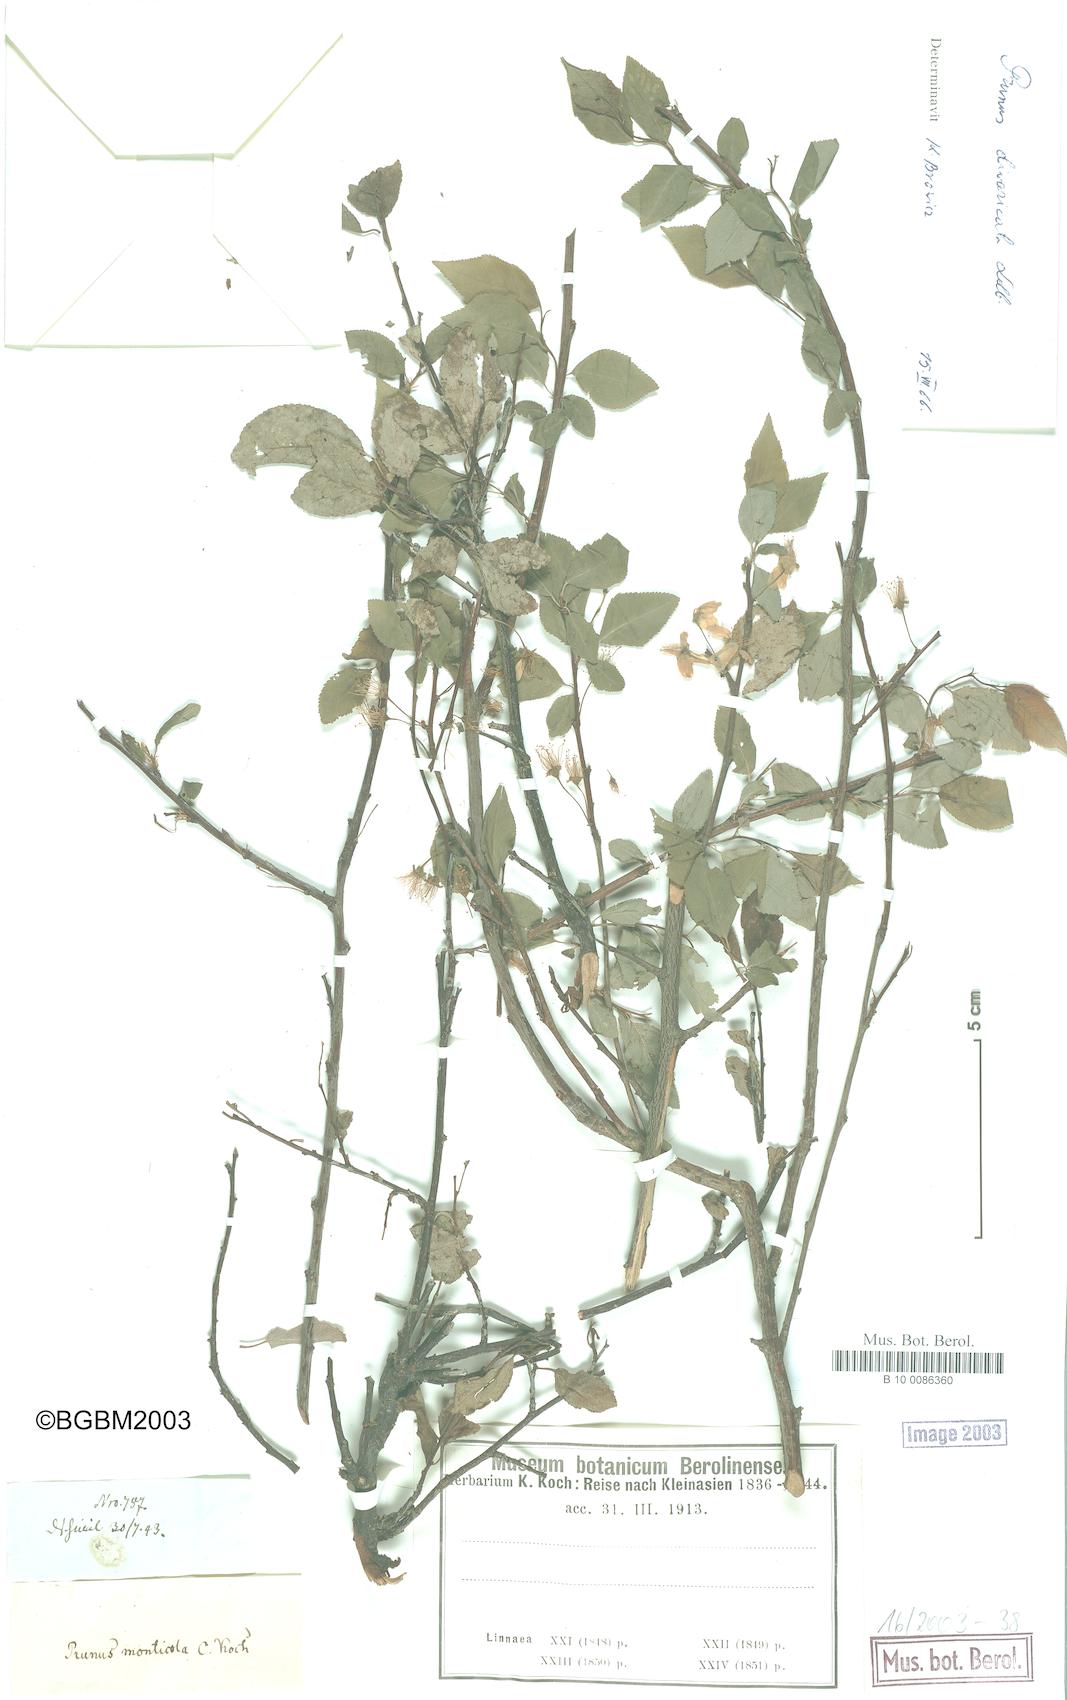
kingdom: Plantae
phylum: Tracheophyta
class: Magnoliopsida
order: Rosales
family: Rosaceae
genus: Prunus
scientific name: Prunus cerasifera
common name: Cherry plum
